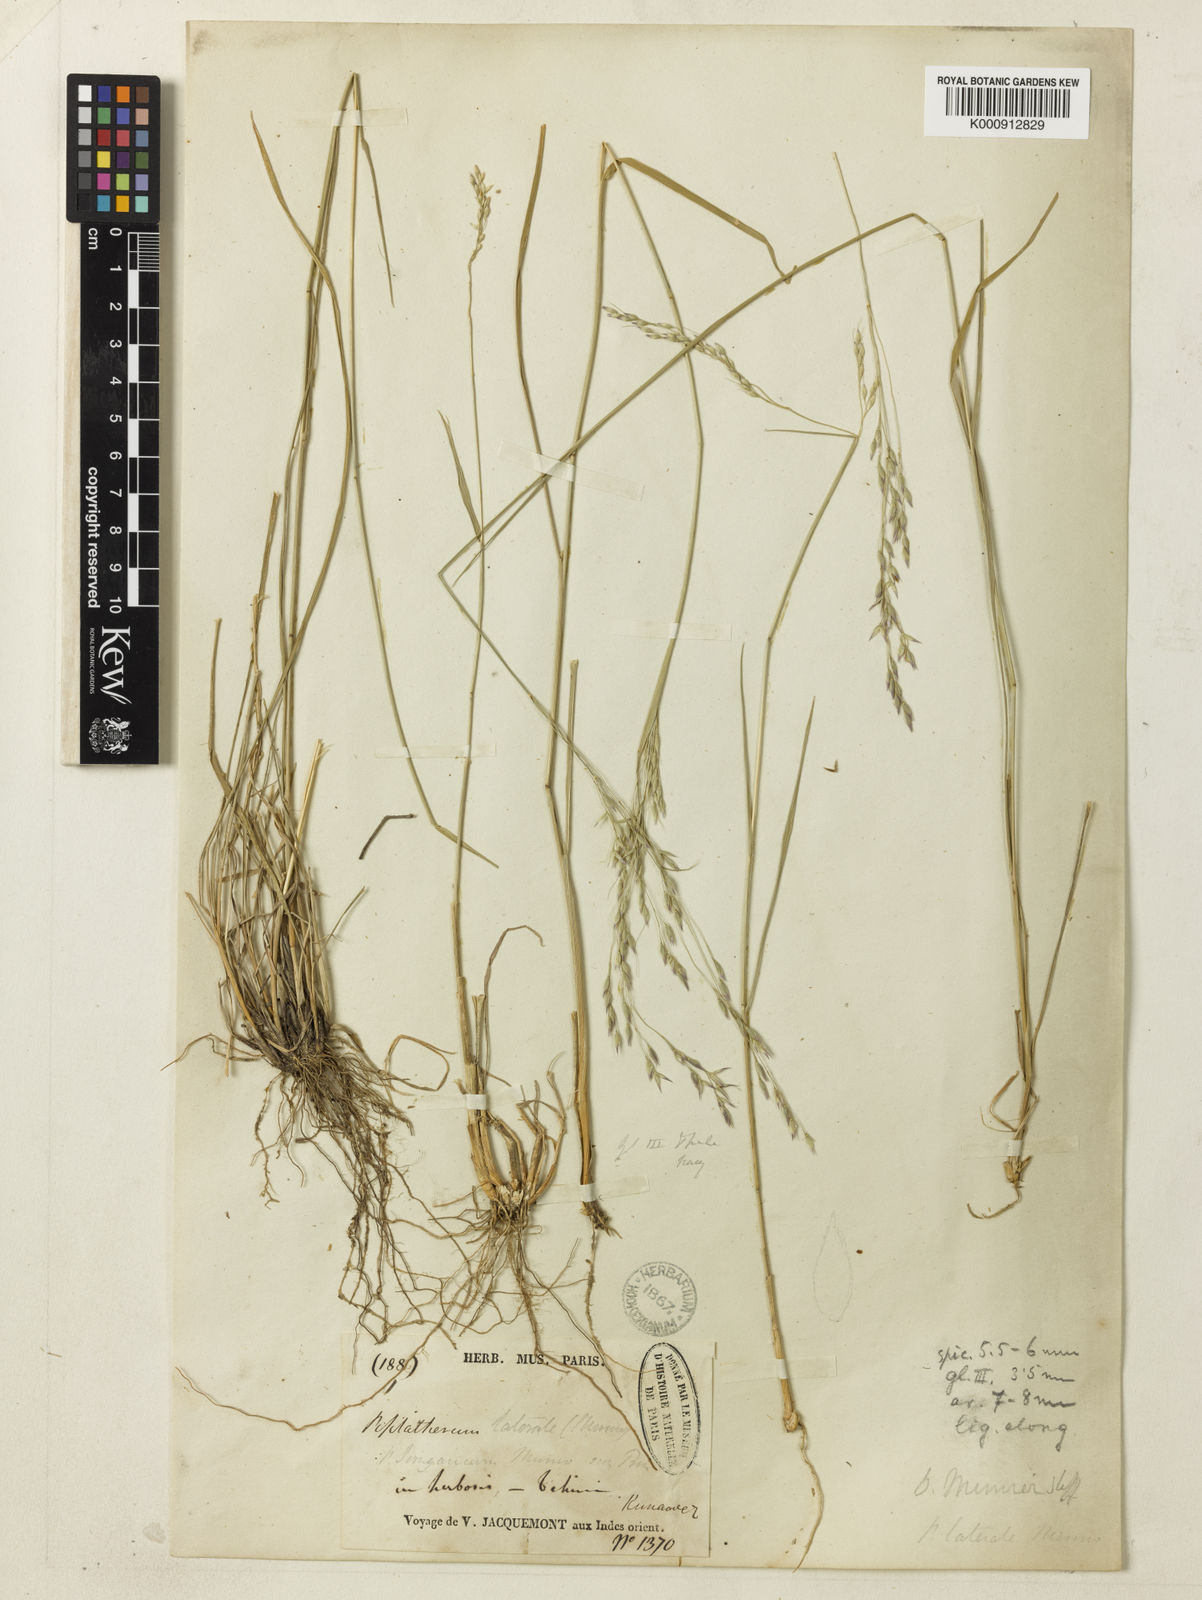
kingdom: Plantae
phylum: Tracheophyta
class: Liliopsida
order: Poales
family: Poaceae
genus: Piptatherum
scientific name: Piptatherum munroi
